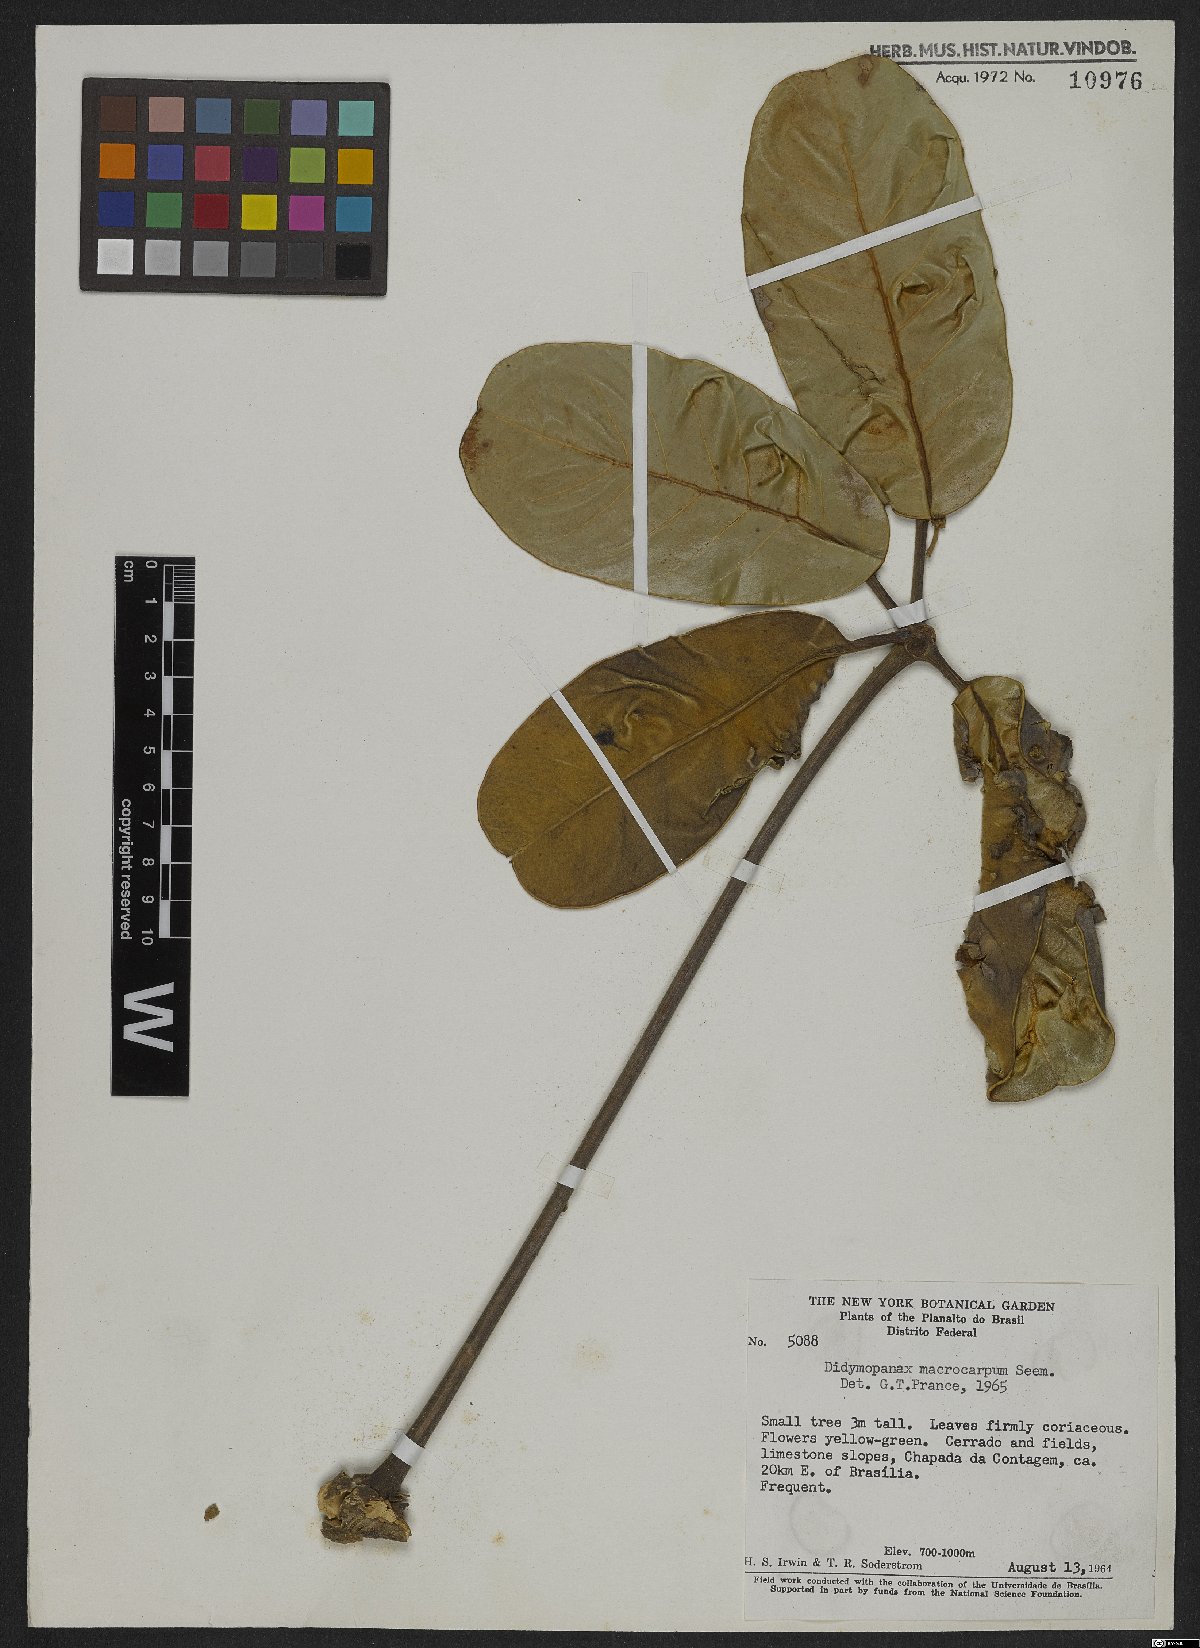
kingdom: Plantae
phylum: Tracheophyta
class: Magnoliopsida
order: Apiales
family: Araliaceae
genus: Didymopanax
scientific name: Didymopanax macrocarpus
